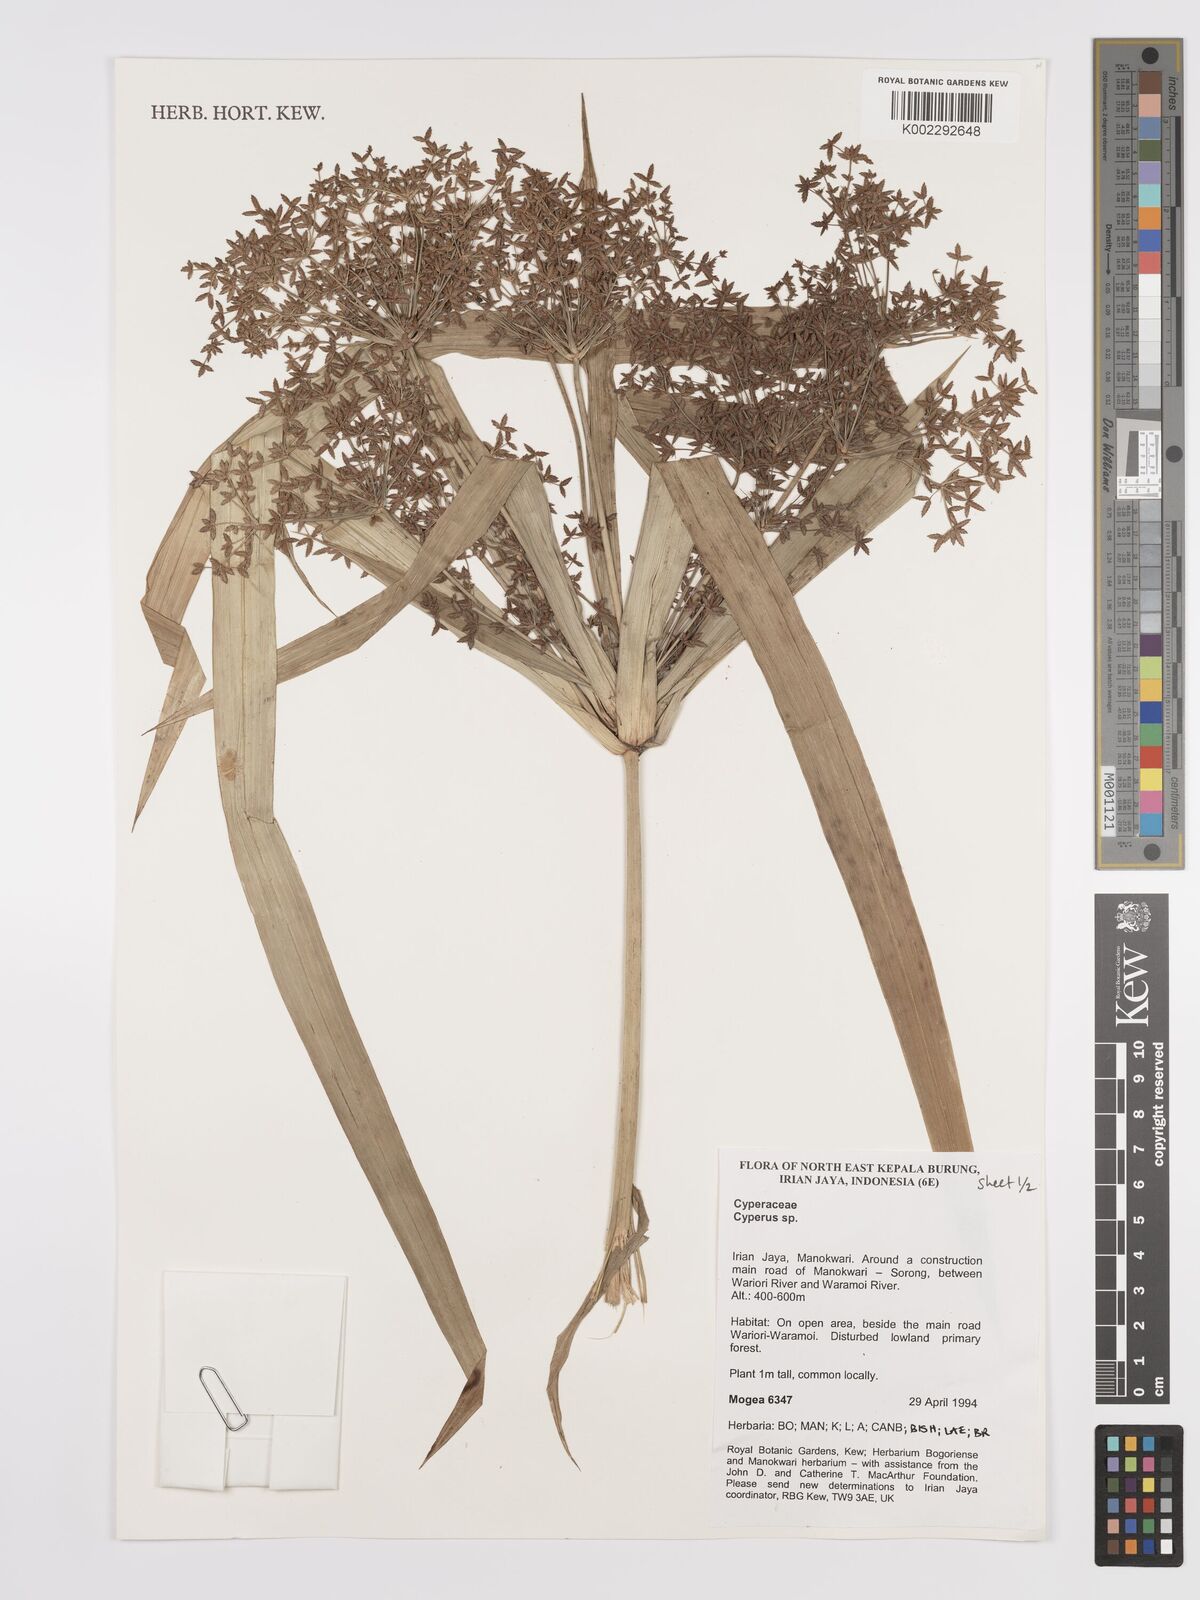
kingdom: Plantae
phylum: Tracheophyta
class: Liliopsida
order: Poales
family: Cyperaceae
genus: Cyperus
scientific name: Cyperus
